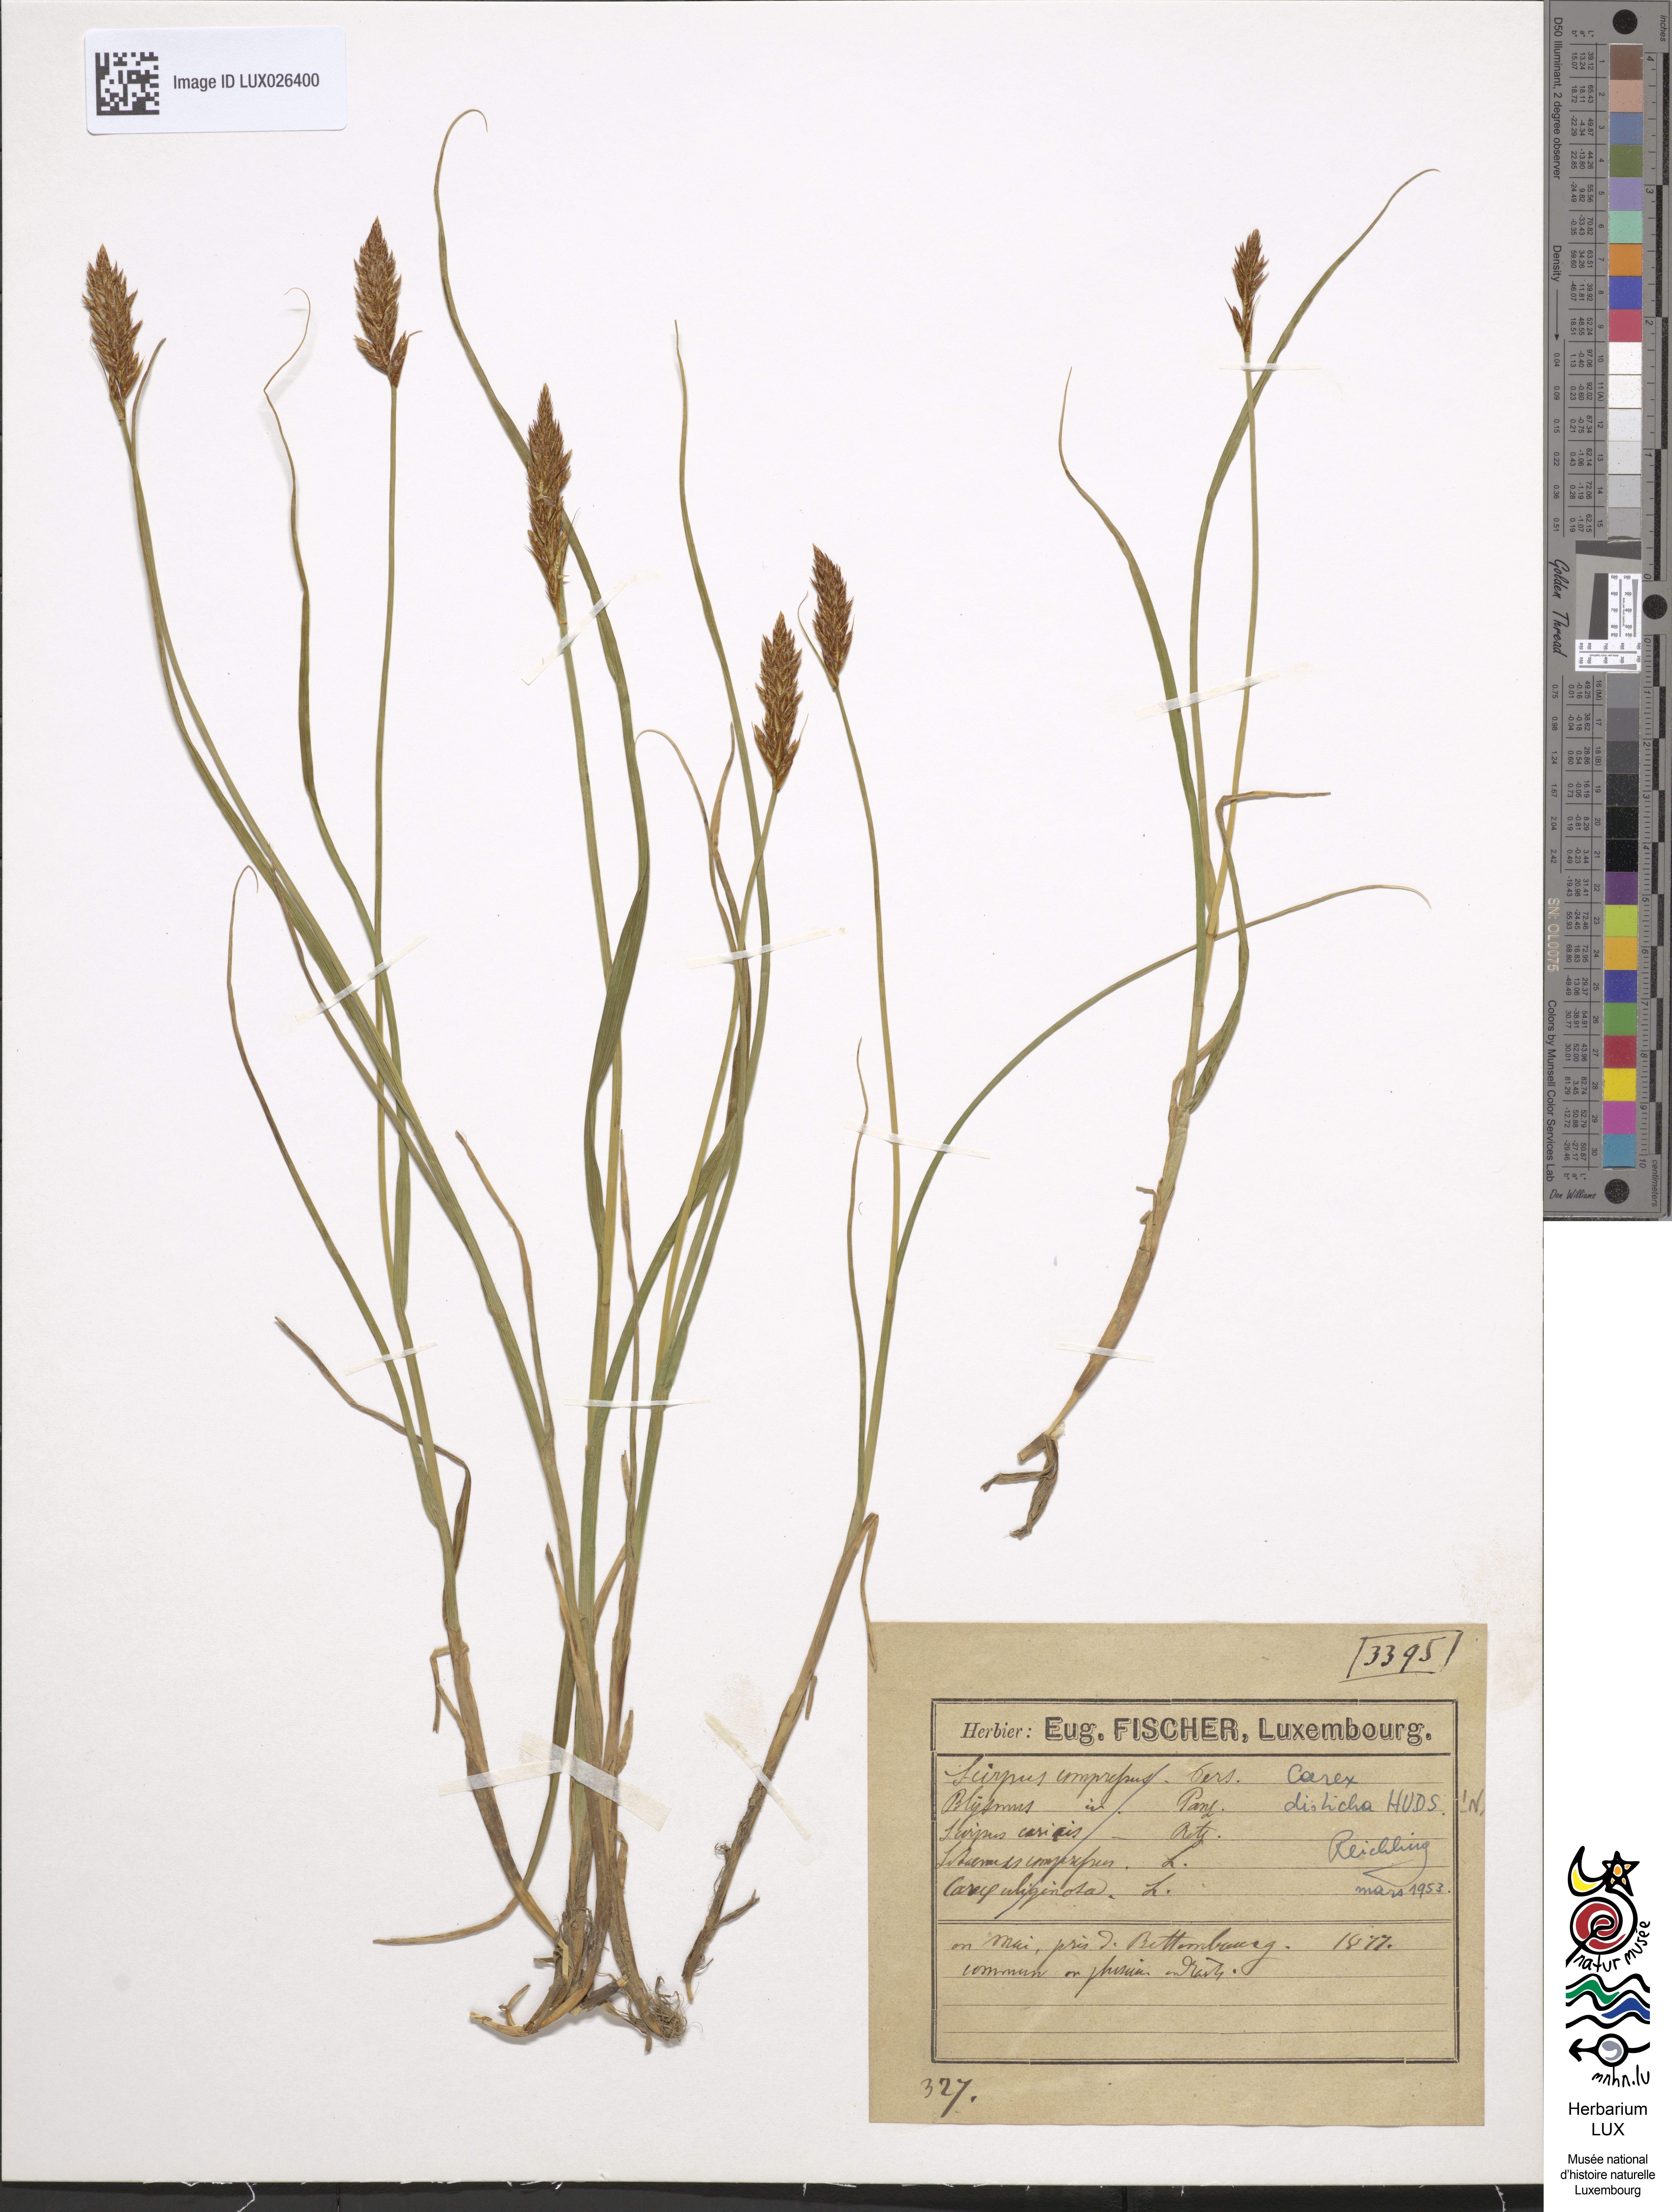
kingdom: Plantae
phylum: Tracheophyta
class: Liliopsida
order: Poales
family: Cyperaceae
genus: Carex
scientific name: Carex disticha
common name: Brown sedge
